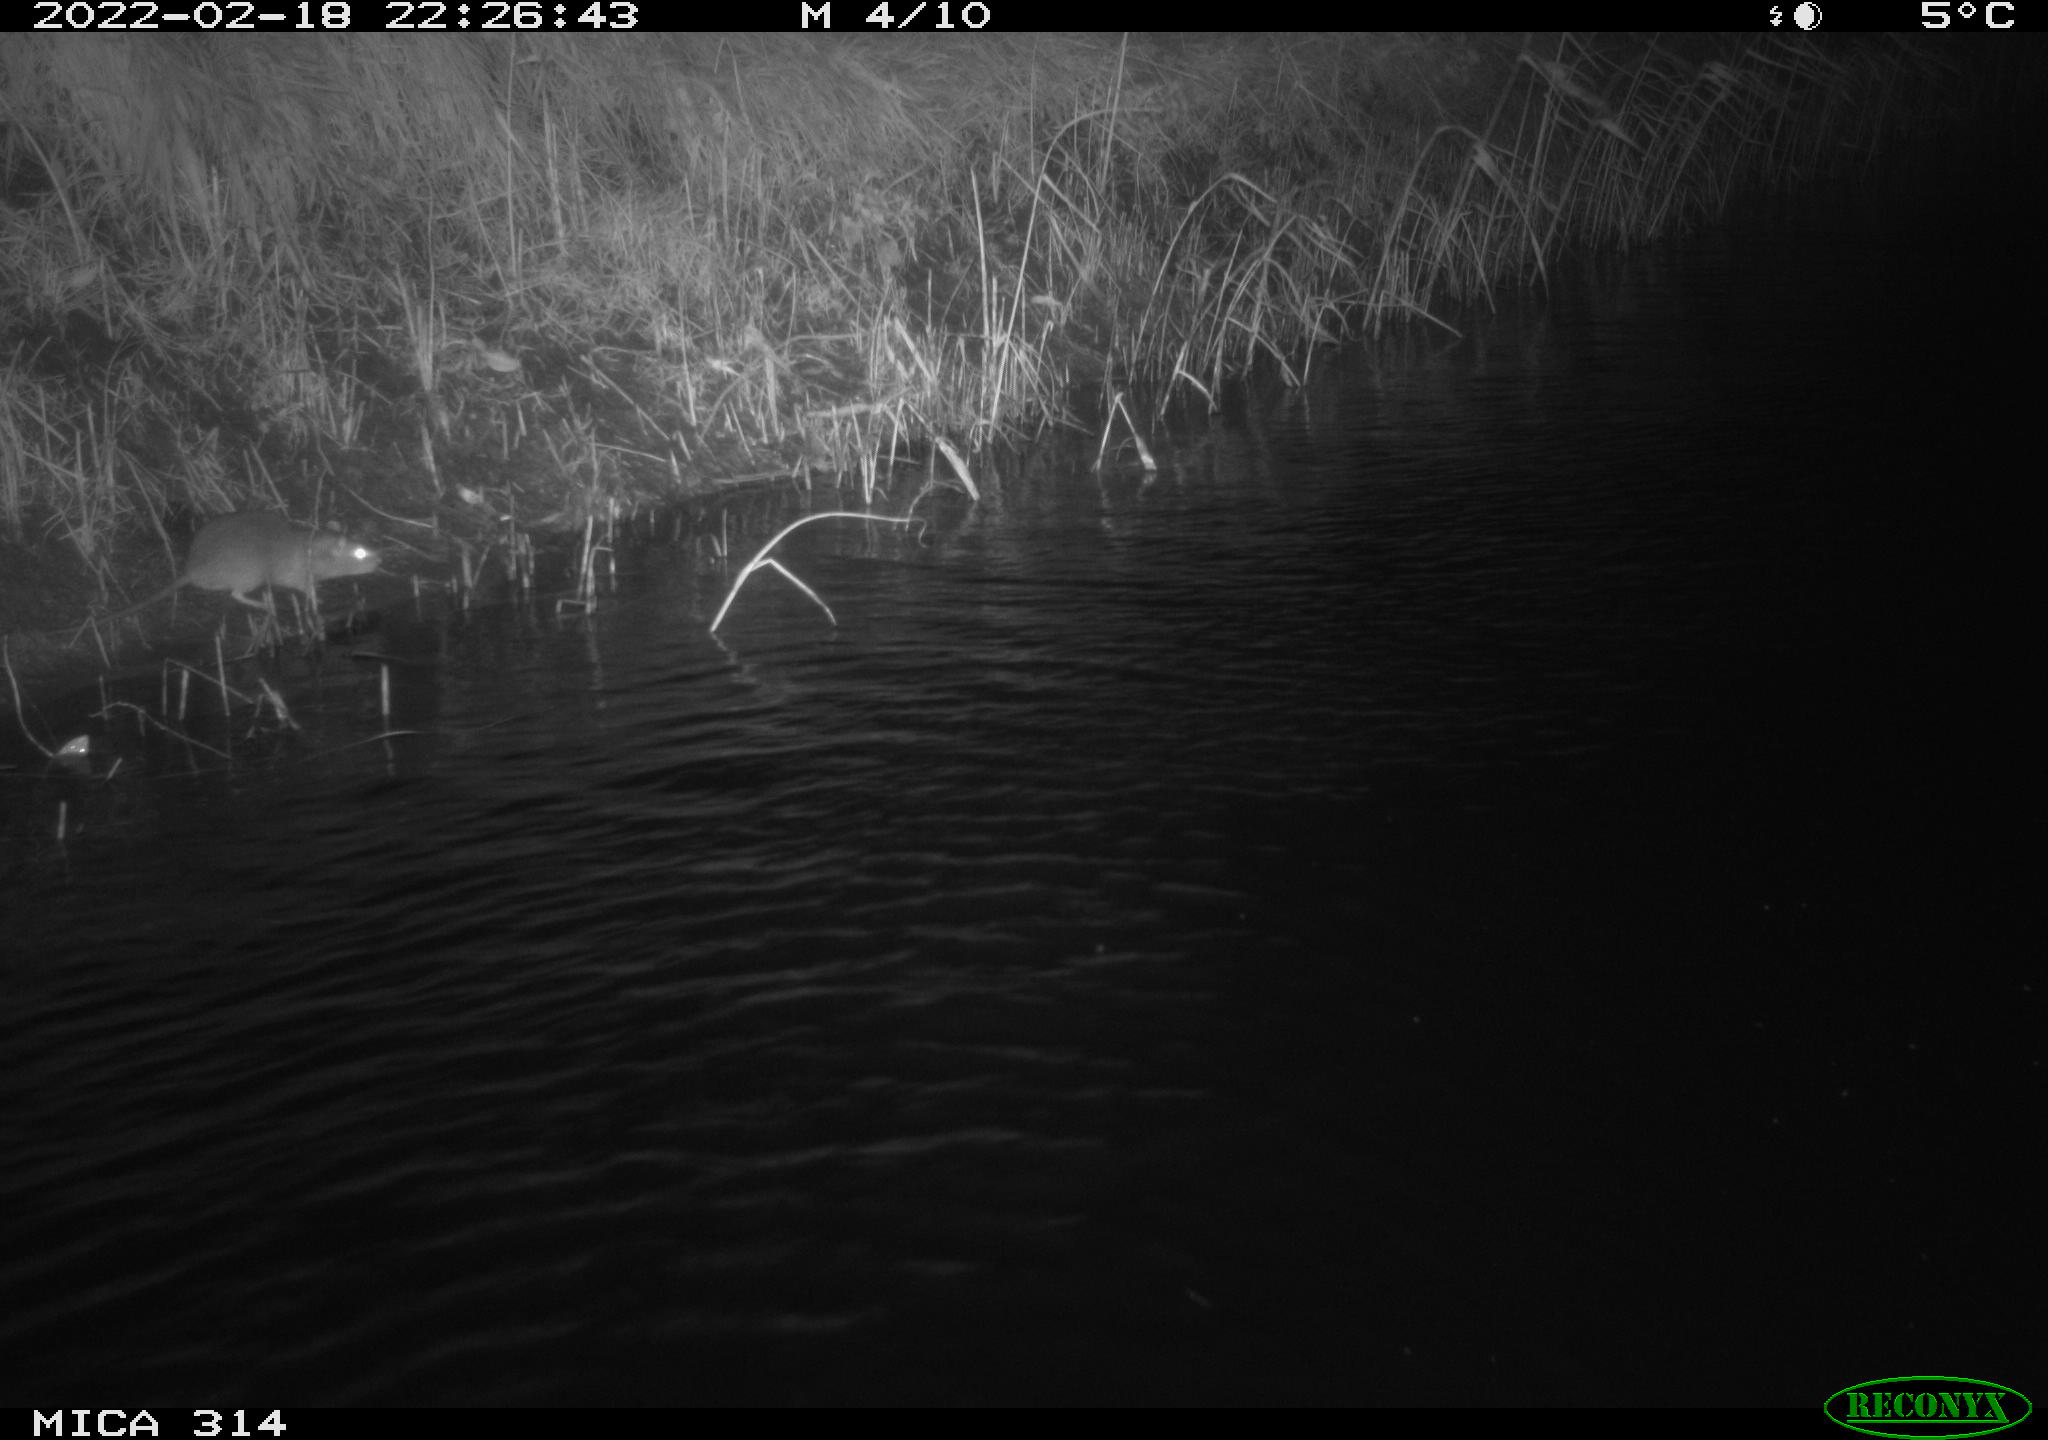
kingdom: Animalia
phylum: Chordata
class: Mammalia
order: Rodentia
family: Muridae
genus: Rattus
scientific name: Rattus norvegicus
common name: Brown rat
